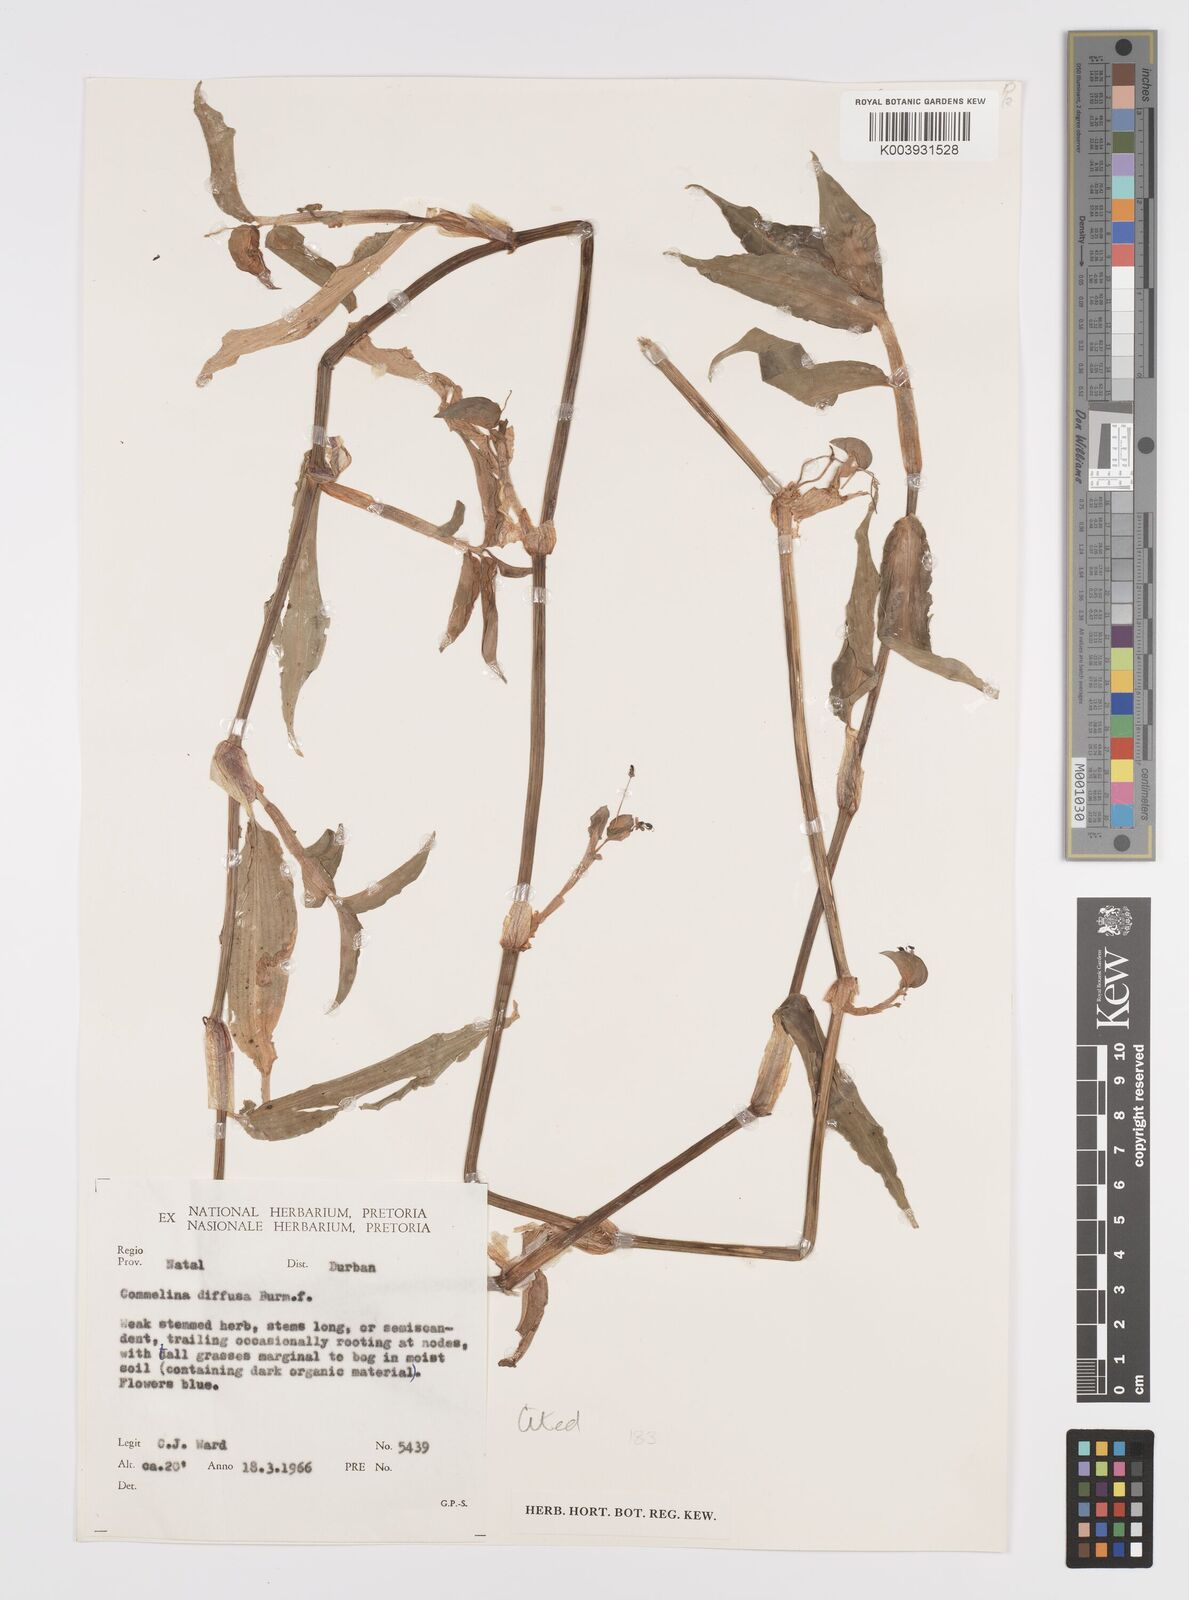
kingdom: Plantae
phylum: Tracheophyta
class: Liliopsida
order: Commelinales
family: Commelinaceae
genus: Commelina
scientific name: Commelina diffusa
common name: Climbing dayflower
